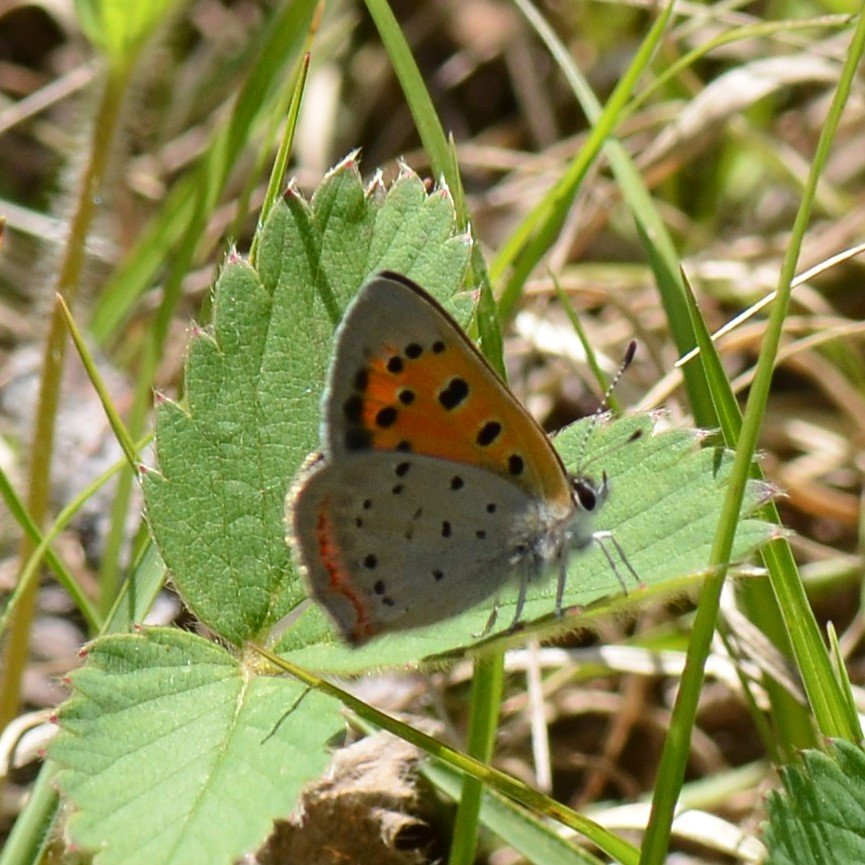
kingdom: Animalia
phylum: Arthropoda
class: Insecta
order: Lepidoptera
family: Lycaenidae
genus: Lycaena
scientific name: Lycaena phlaeas
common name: American Copper
